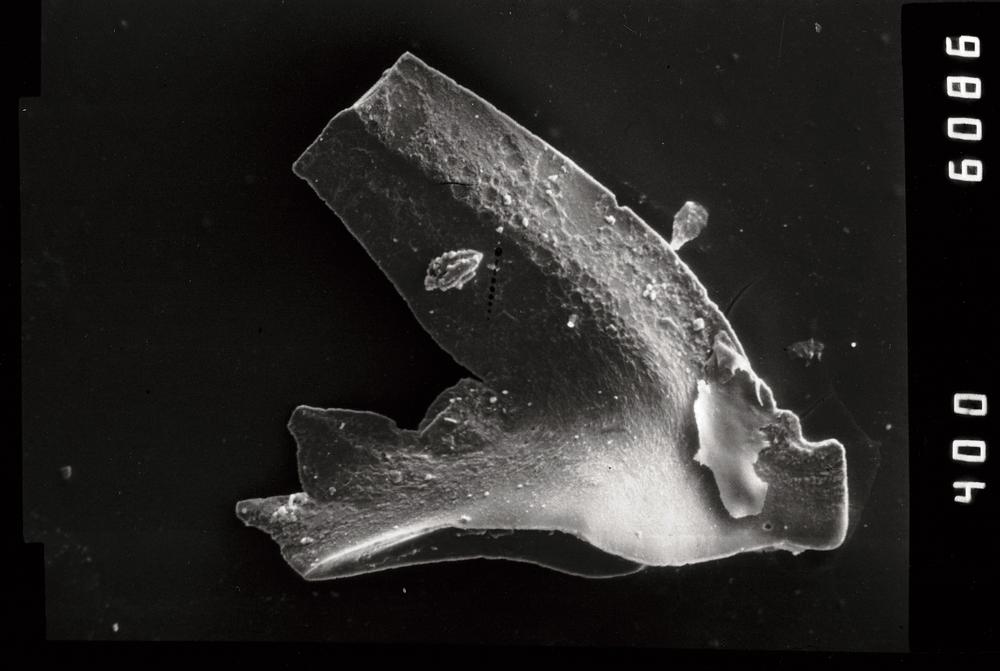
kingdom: Animalia
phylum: Chordata
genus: Periodon
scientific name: Periodon aculeatus
